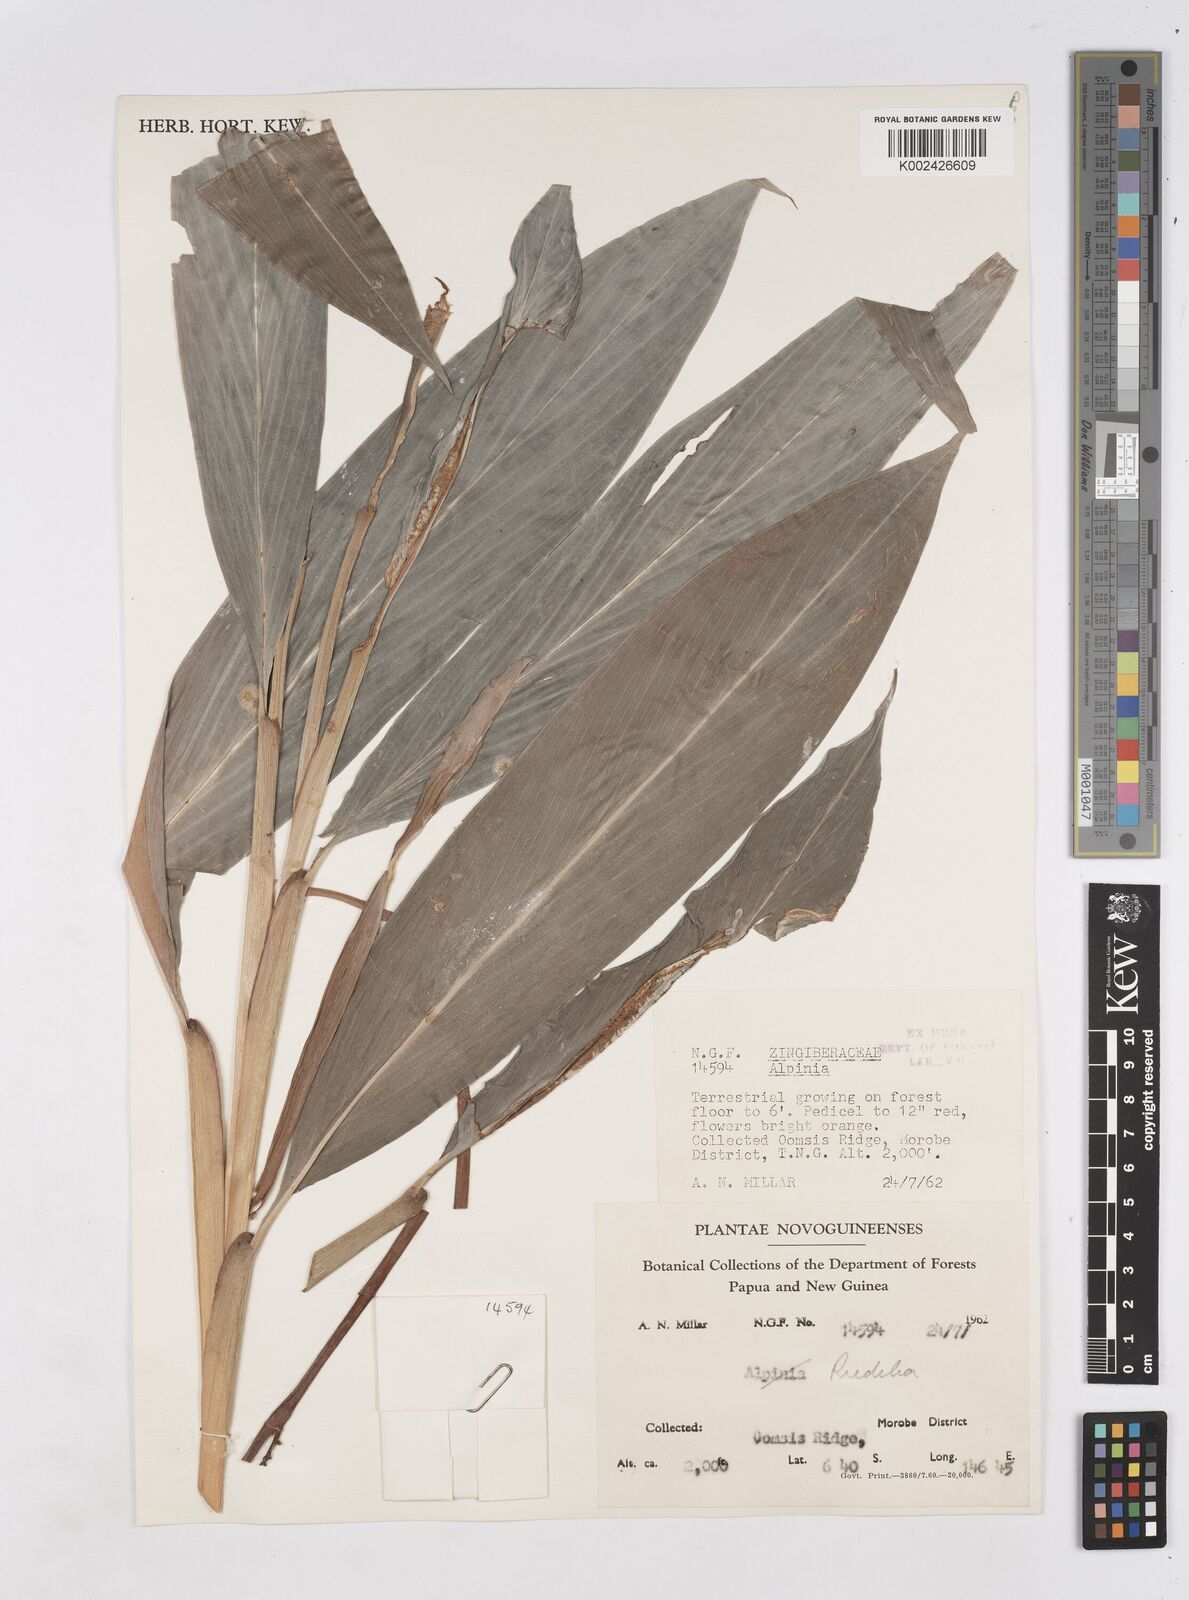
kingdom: Plantae
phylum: Tracheophyta
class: Liliopsida
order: Zingiberales
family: Zingiberaceae
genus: Riedelia
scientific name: Riedelia
